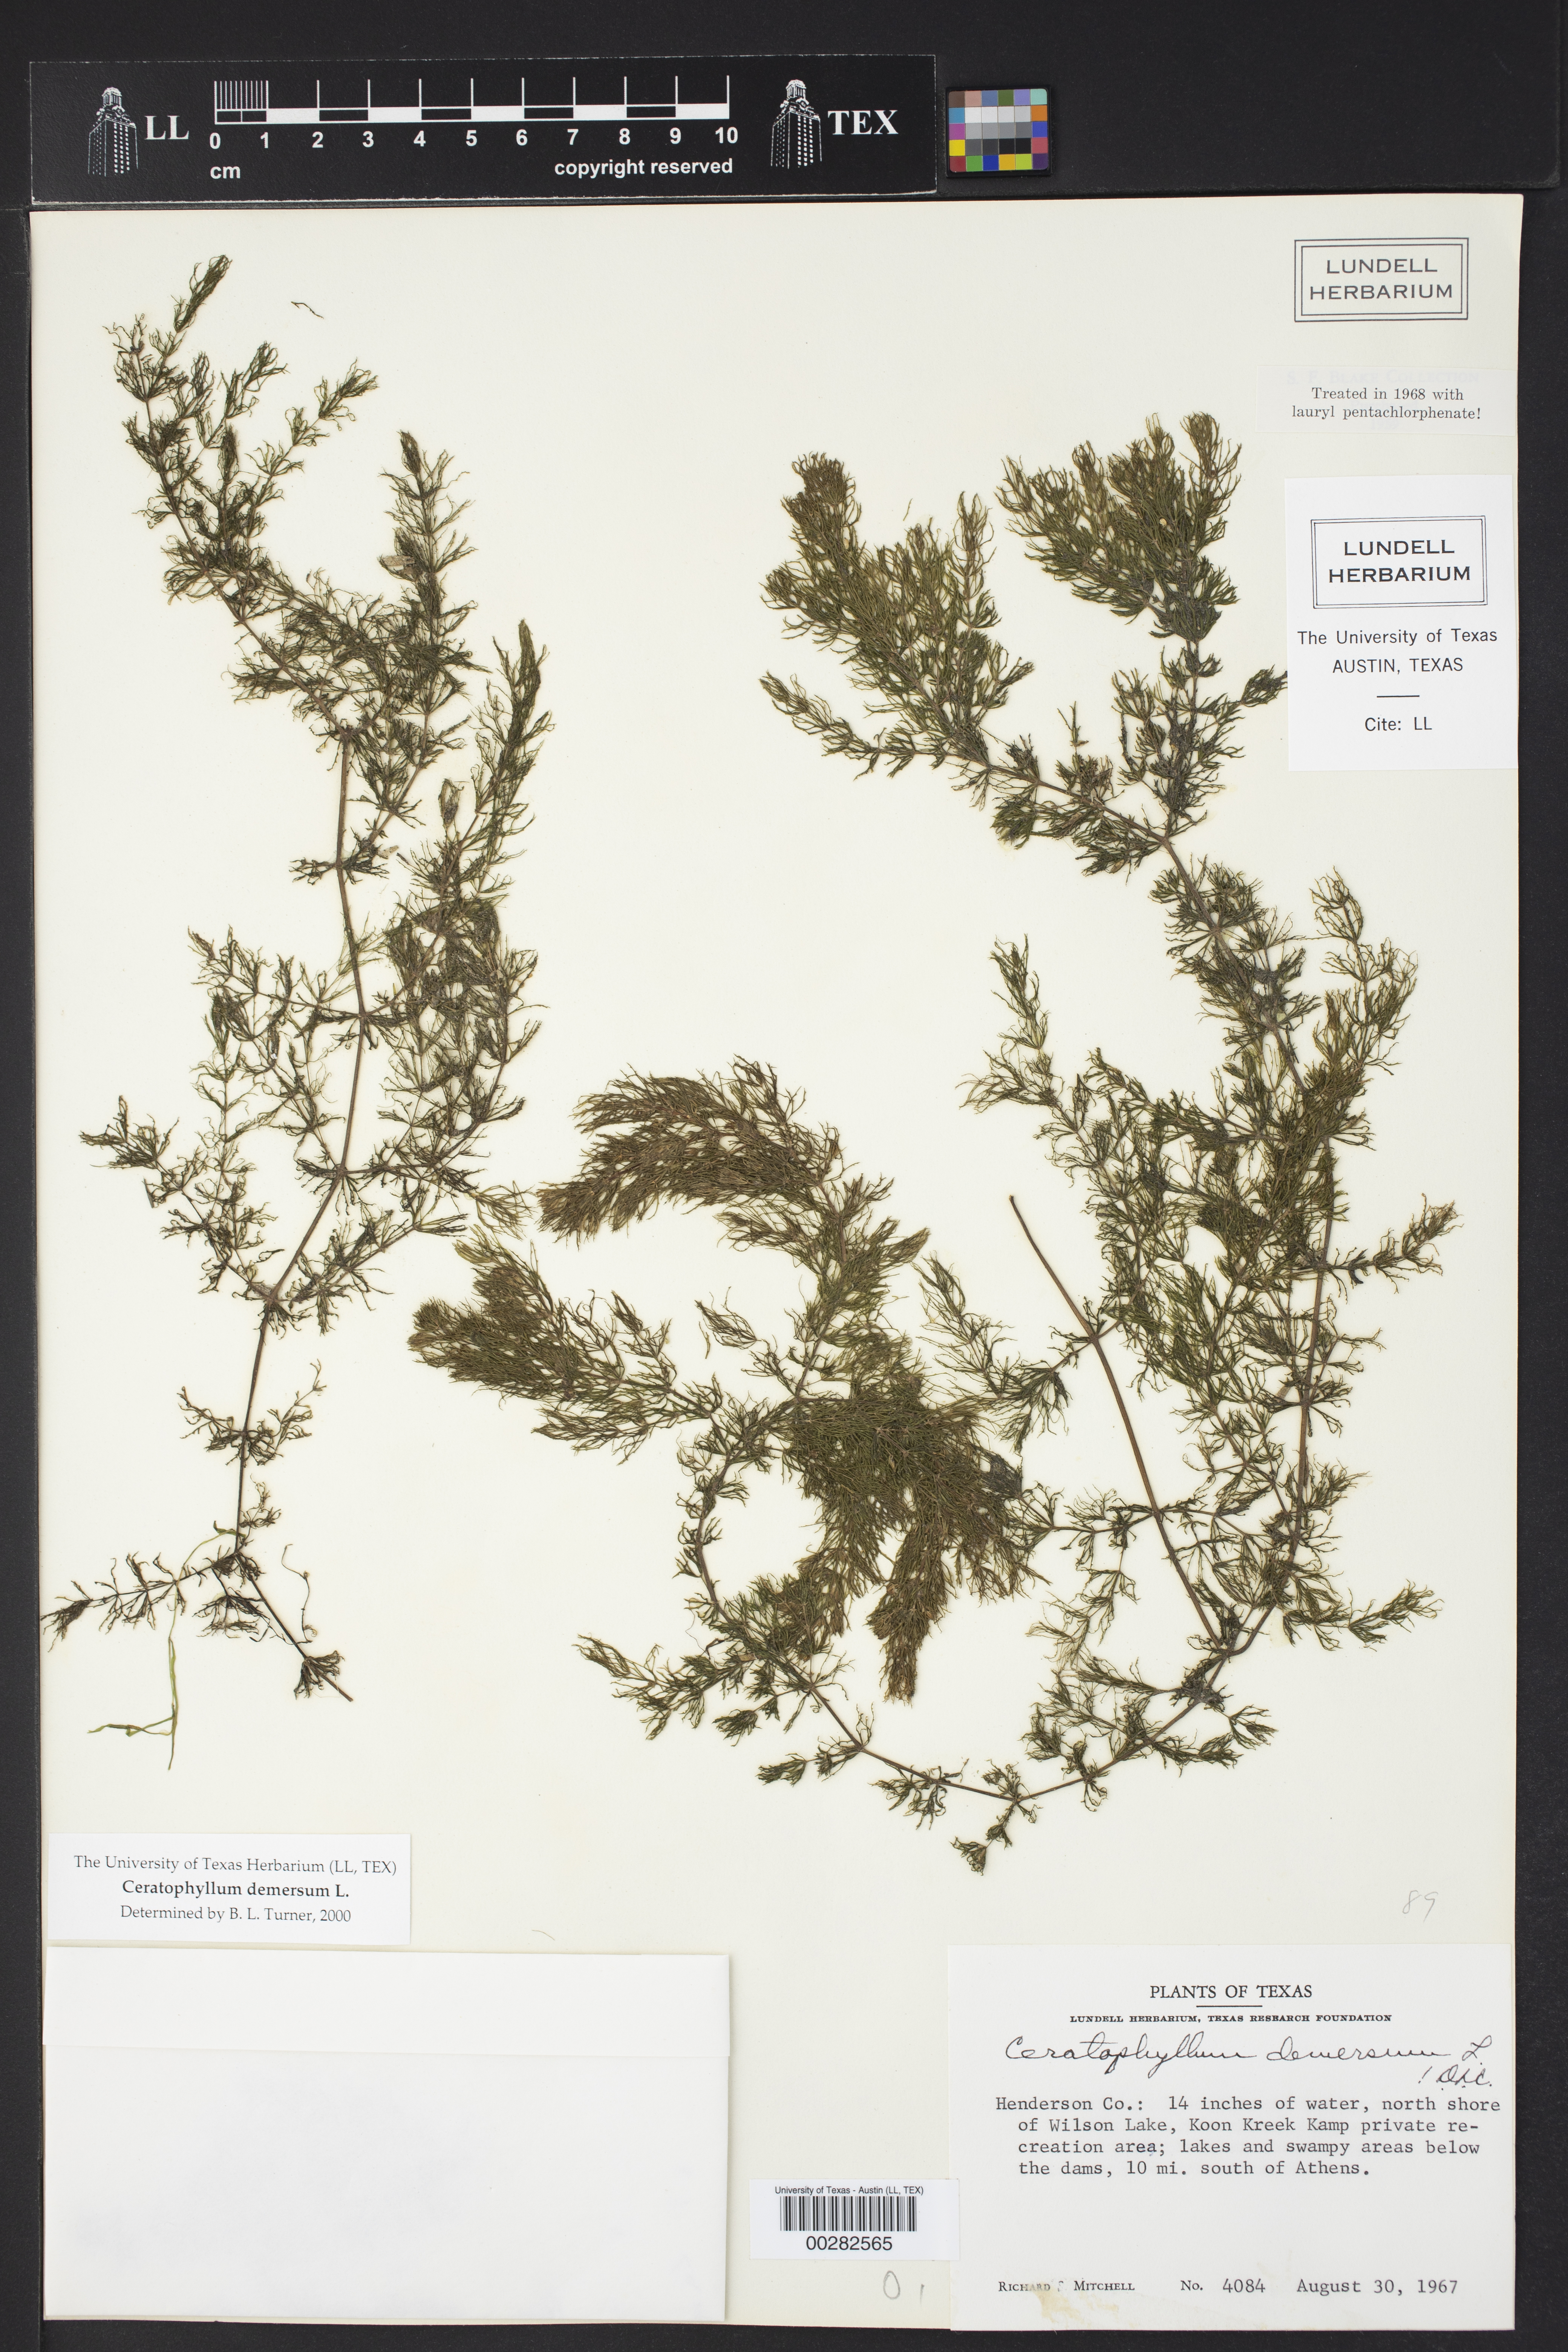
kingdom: Plantae
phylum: Tracheophyta
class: Magnoliopsida
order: Ceratophyllales
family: Ceratophyllaceae
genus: Ceratophyllum
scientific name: Ceratophyllum demersum
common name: Rigid hornwort
